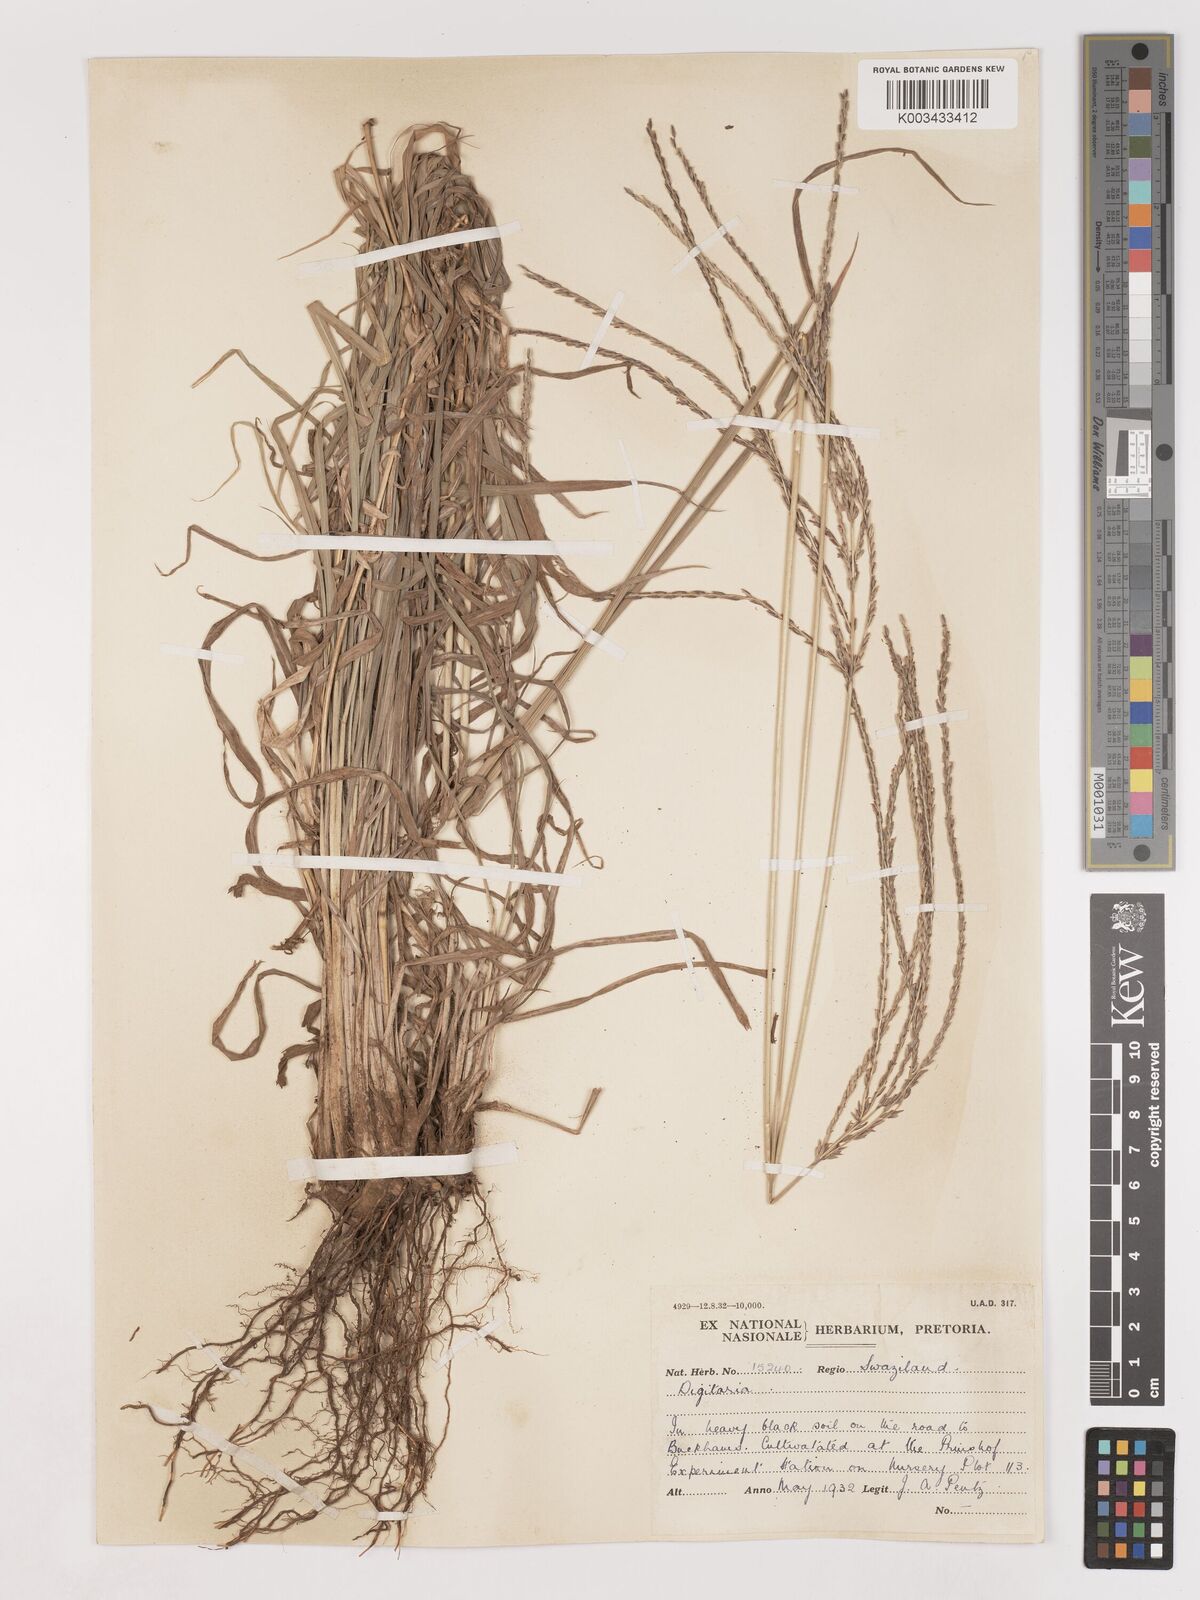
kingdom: Plantae
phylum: Tracheophyta
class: Liliopsida
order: Poales
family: Poaceae
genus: Digitaria
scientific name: Digitaria eriantha
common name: Digitgrass
